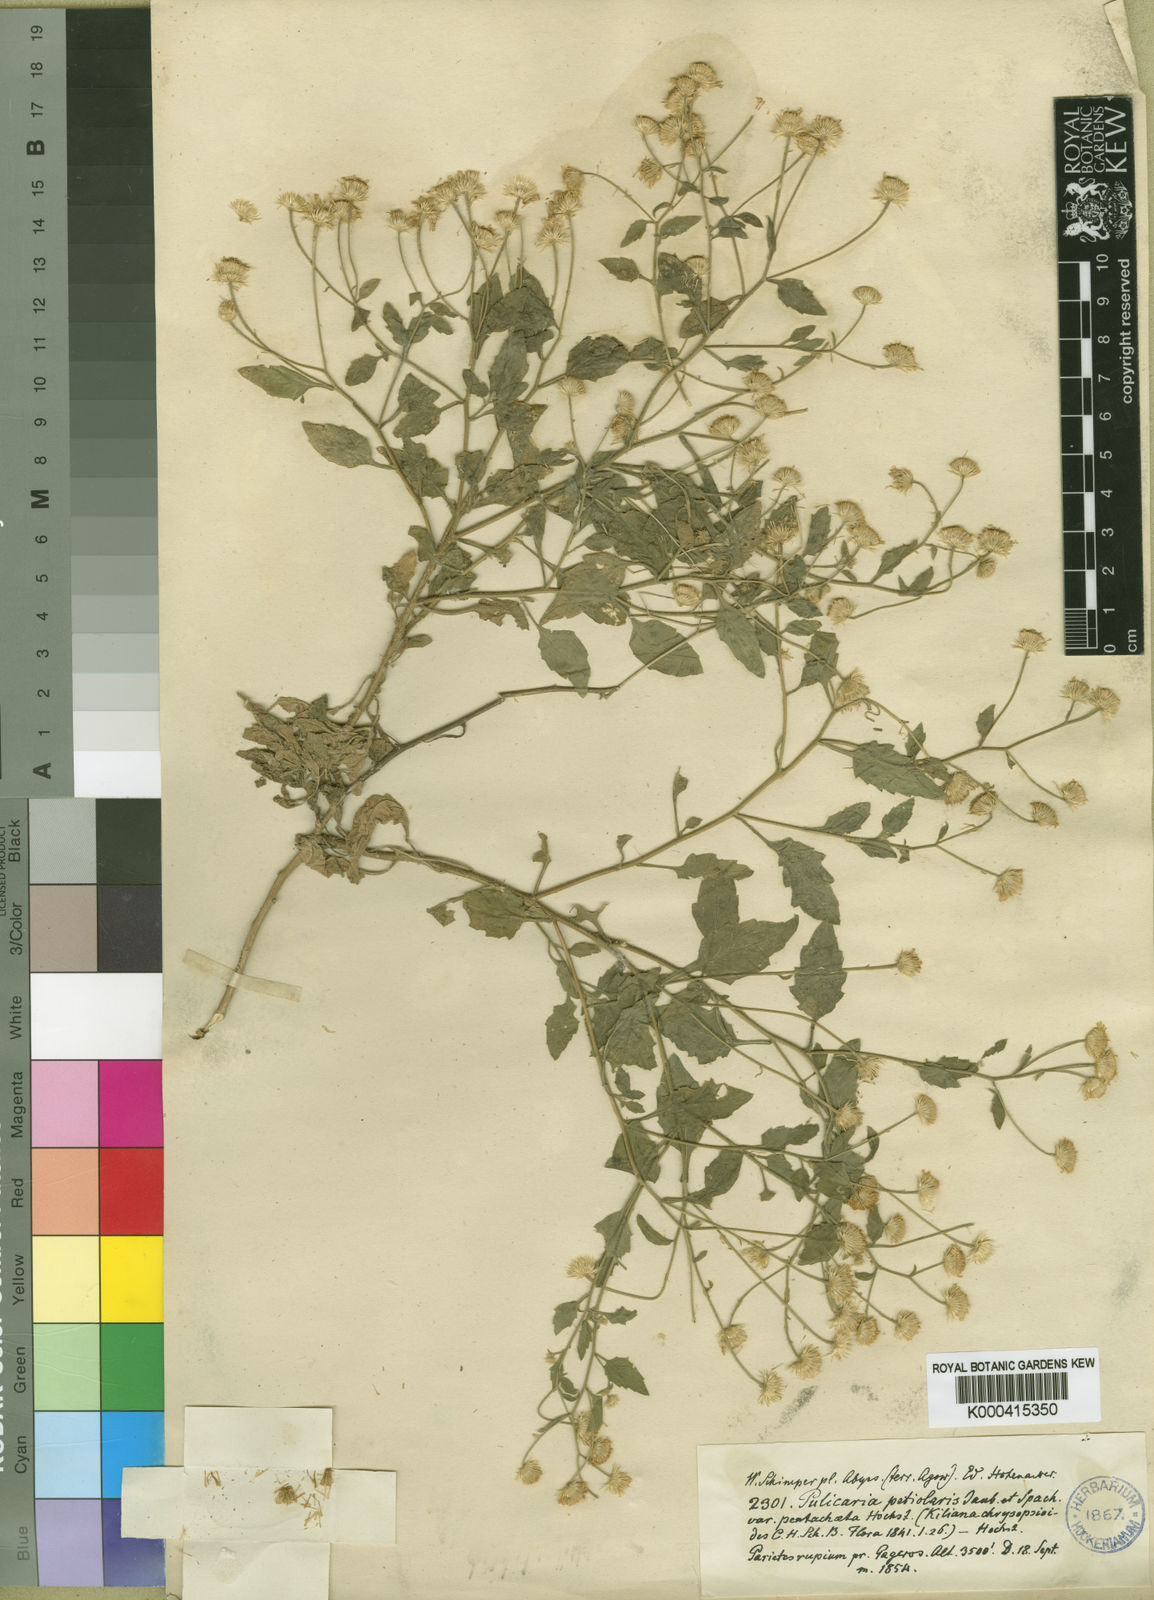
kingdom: Plantae
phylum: Tracheophyta
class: Magnoliopsida
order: Asterales
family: Asteraceae
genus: Pulicaria
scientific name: Pulicaria petiolaris
